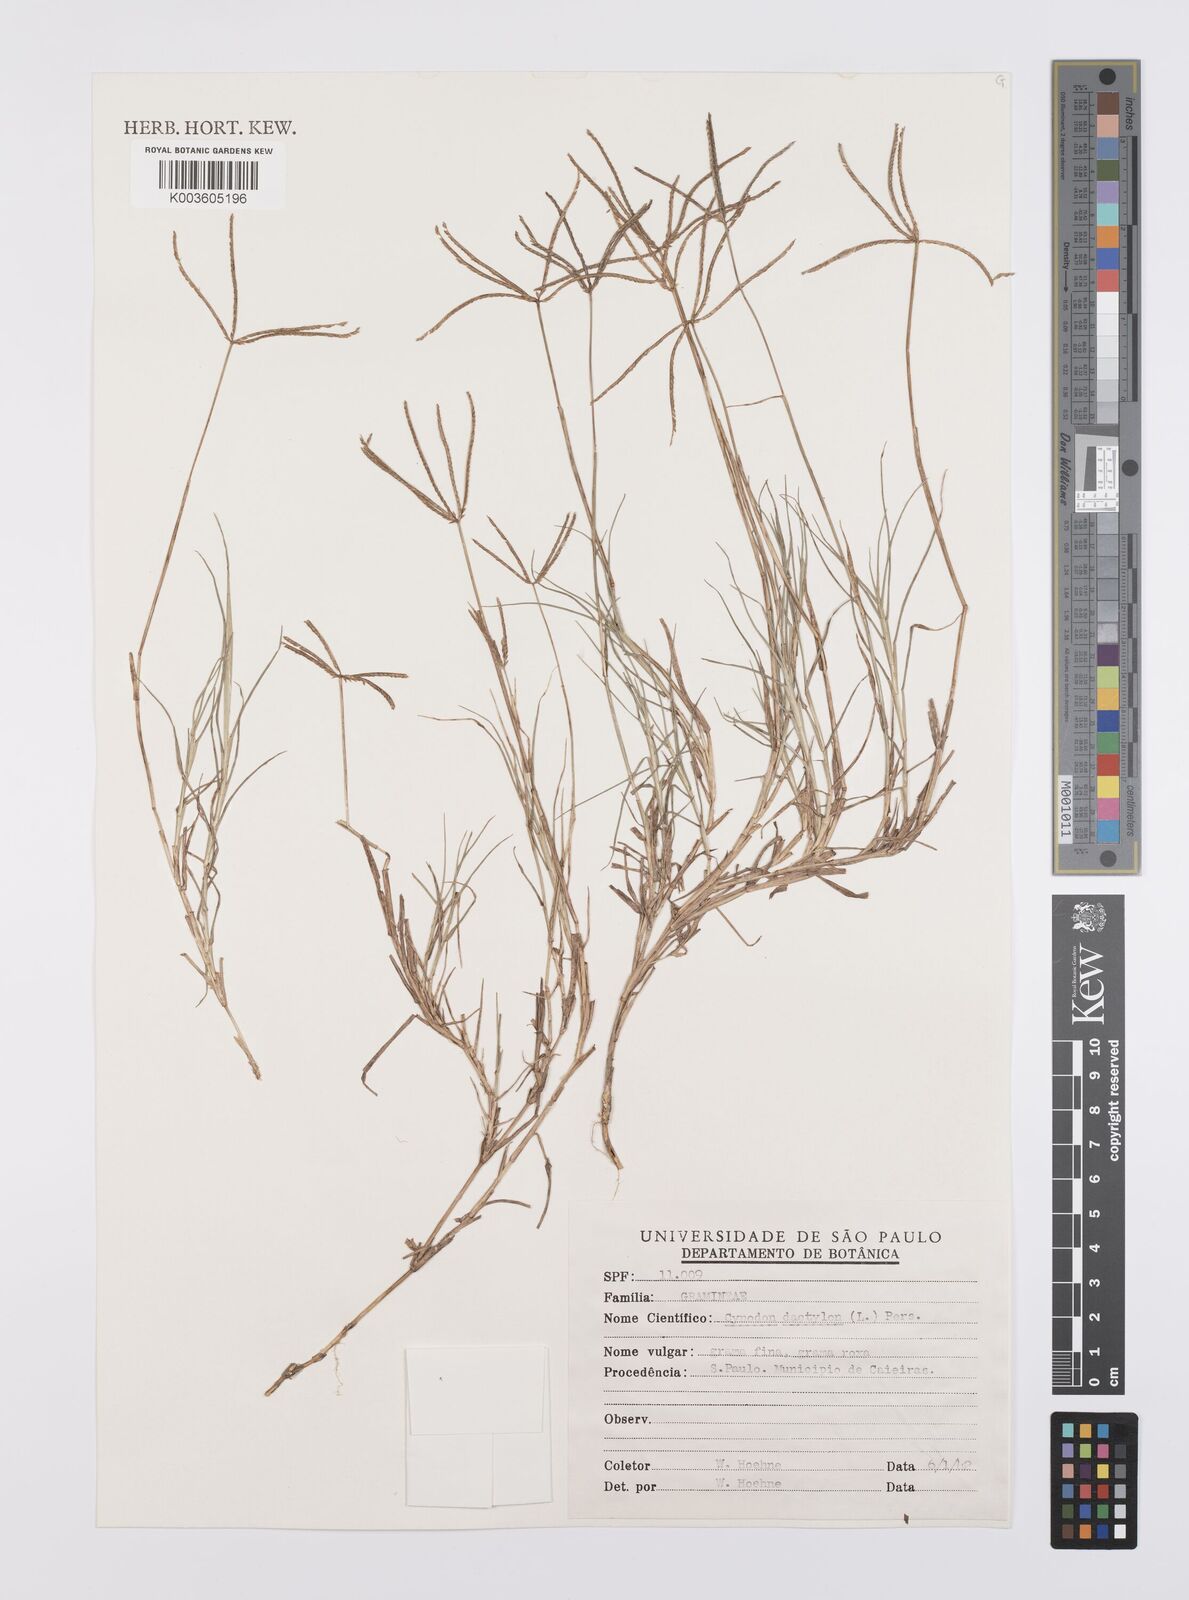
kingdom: Plantae
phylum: Tracheophyta
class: Liliopsida
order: Poales
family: Poaceae
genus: Cynodon
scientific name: Cynodon dactylon
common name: Bermuda grass
